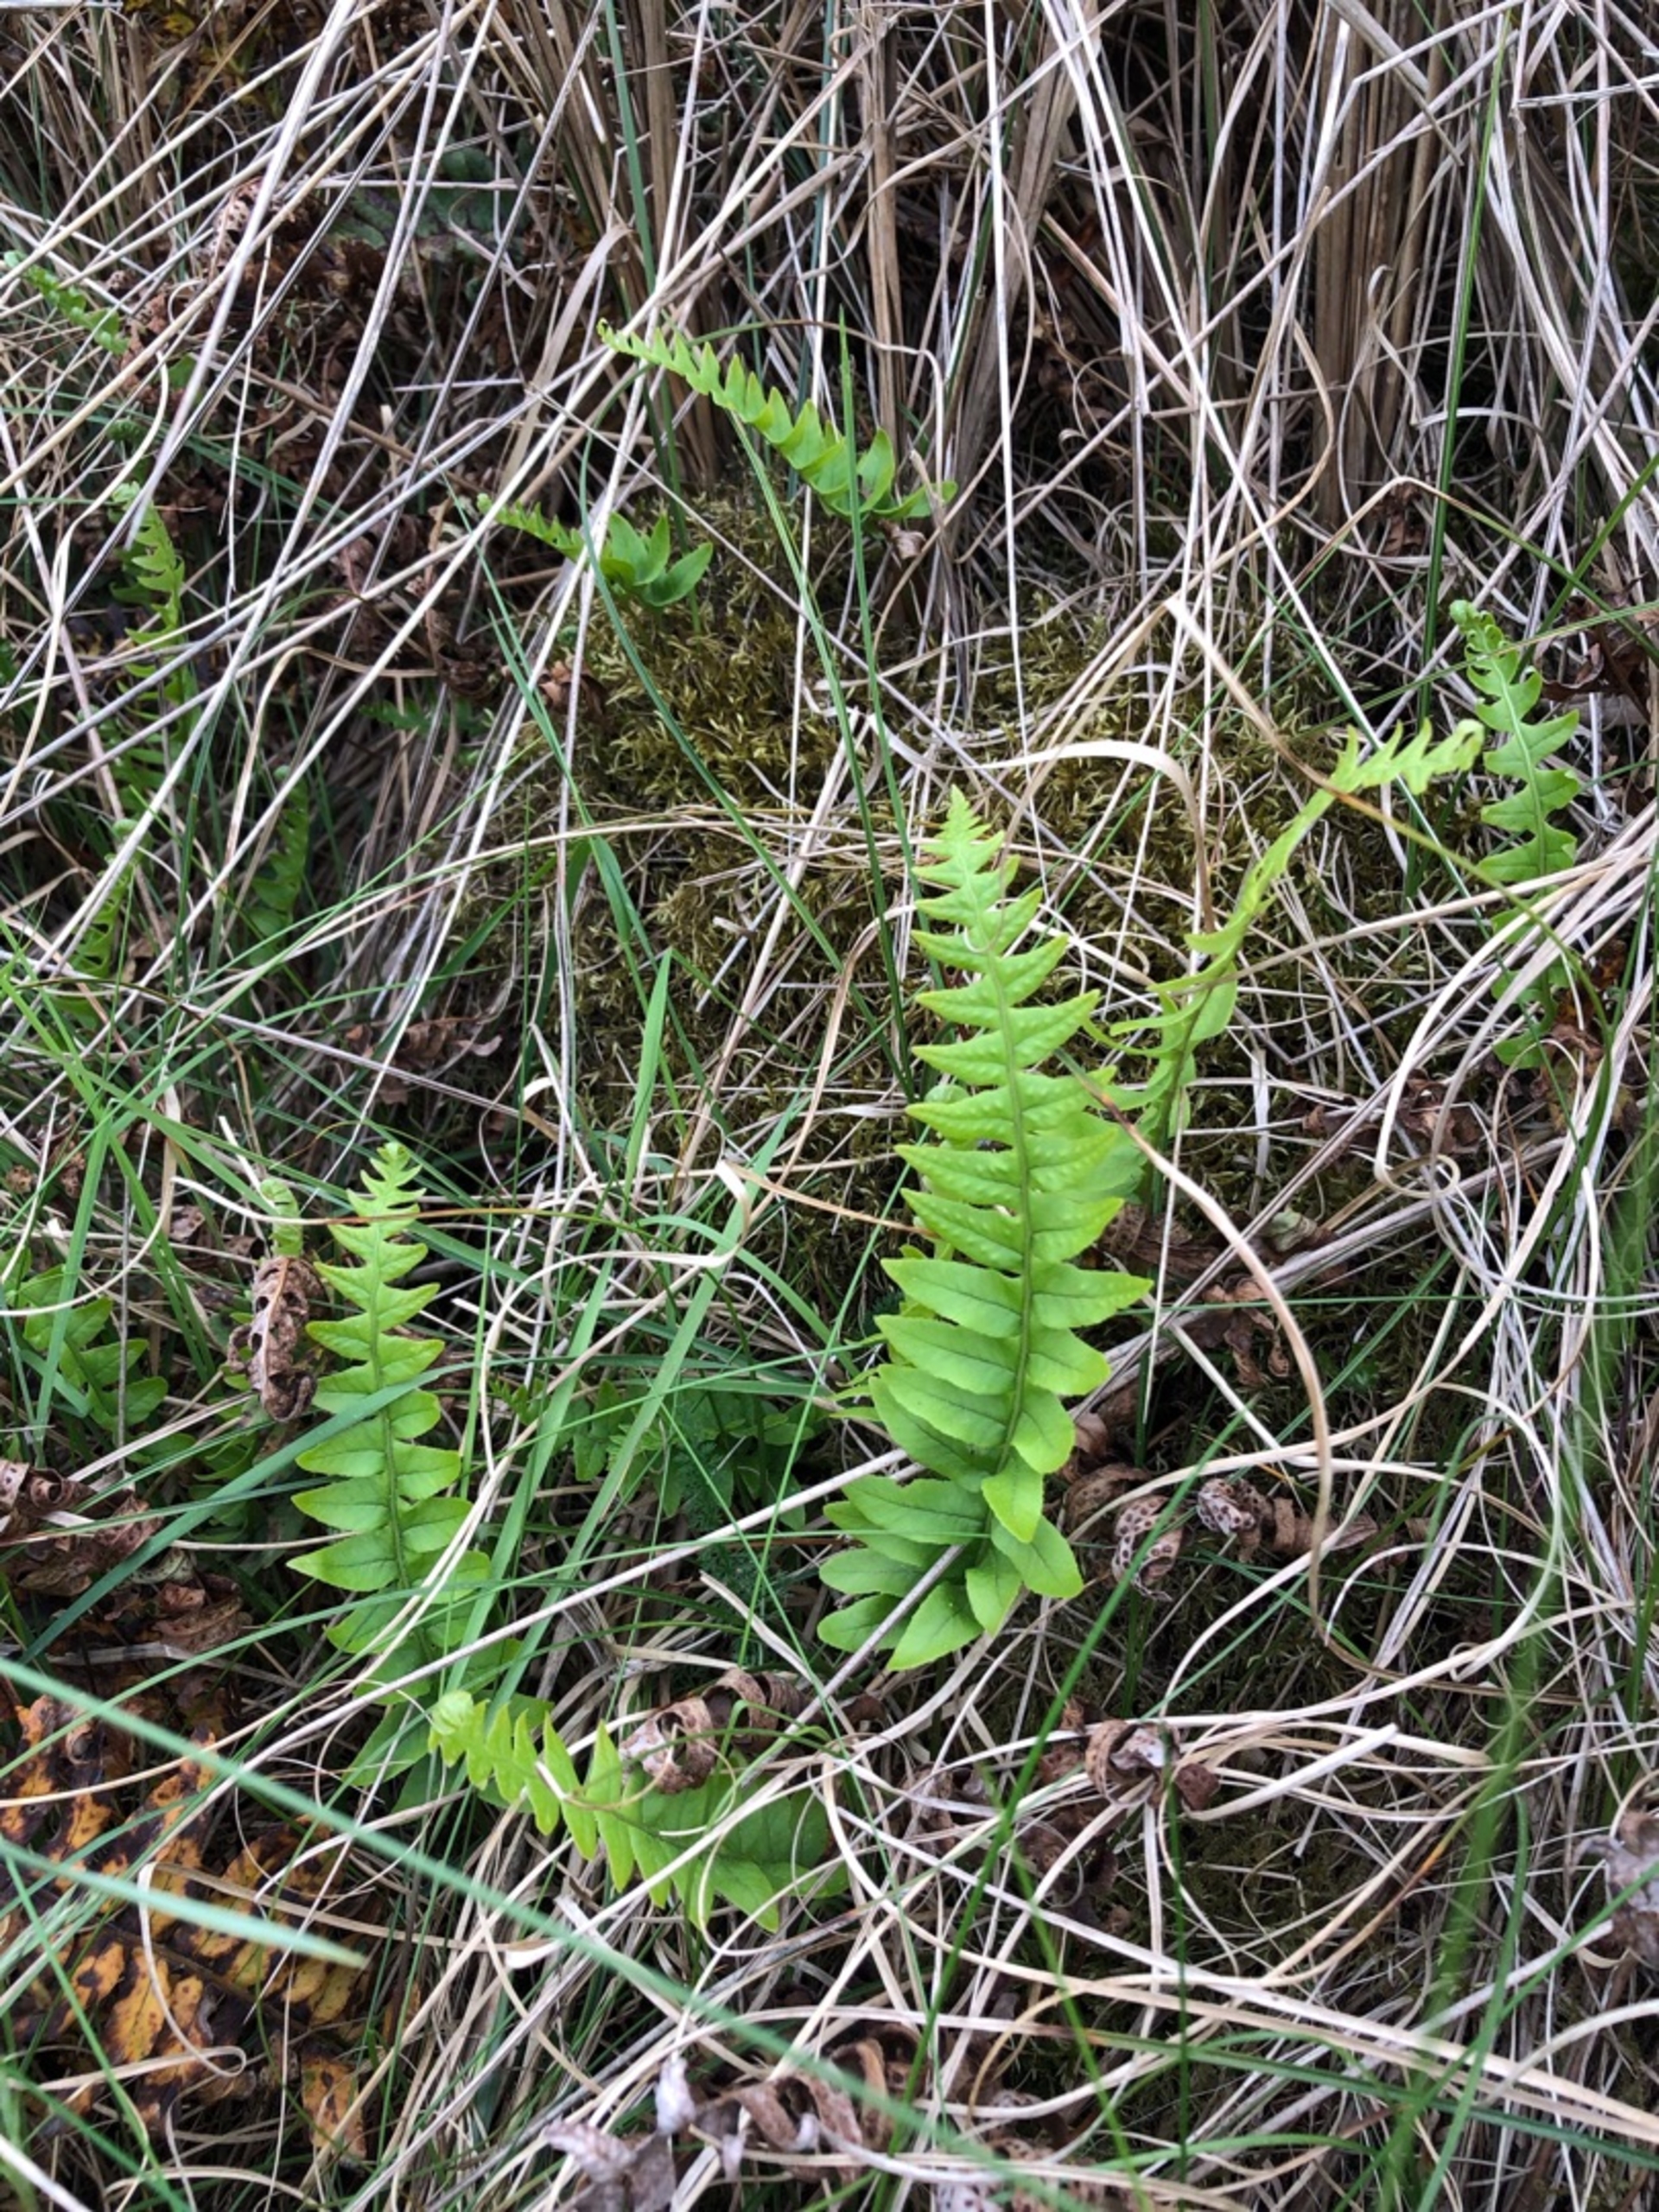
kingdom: Plantae
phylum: Tracheophyta
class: Polypodiopsida
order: Polypodiales
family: Polypodiaceae
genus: Polypodium
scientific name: Polypodium vulgare
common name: Almindelig engelsød
